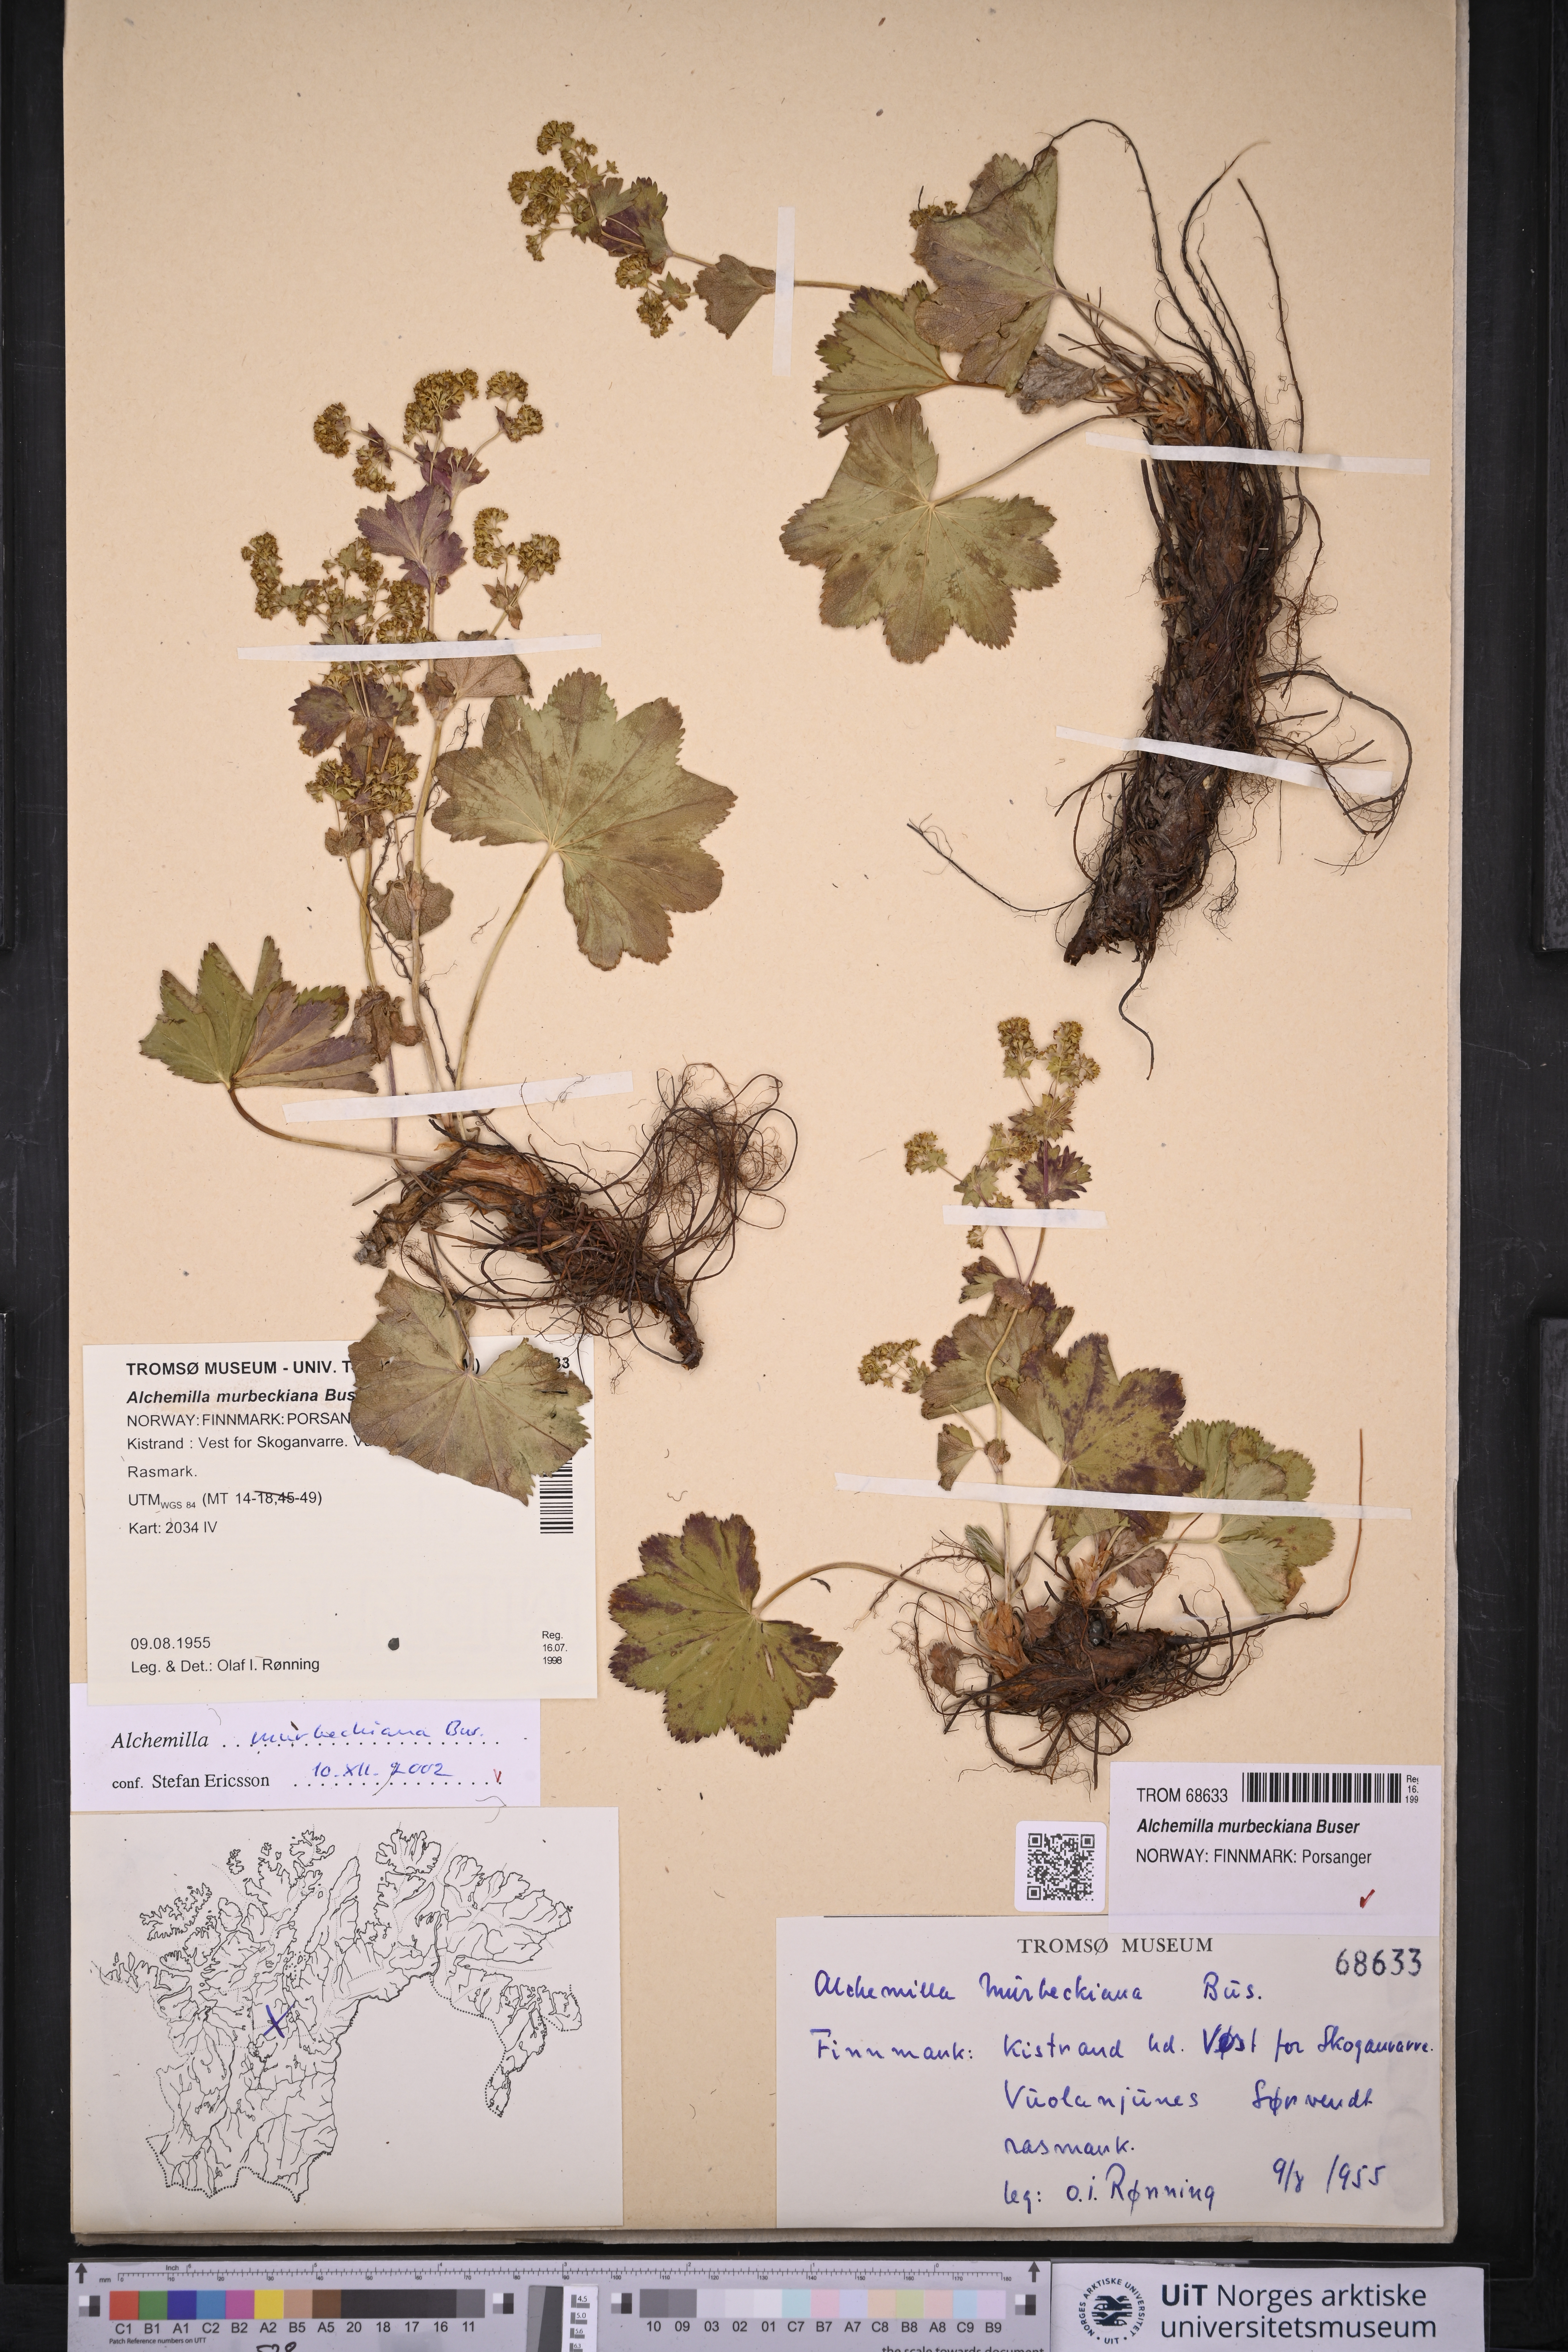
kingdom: Plantae
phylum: Tracheophyta
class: Magnoliopsida
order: Rosales
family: Rosaceae
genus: Alchemilla
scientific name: Alchemilla murbeckiana
